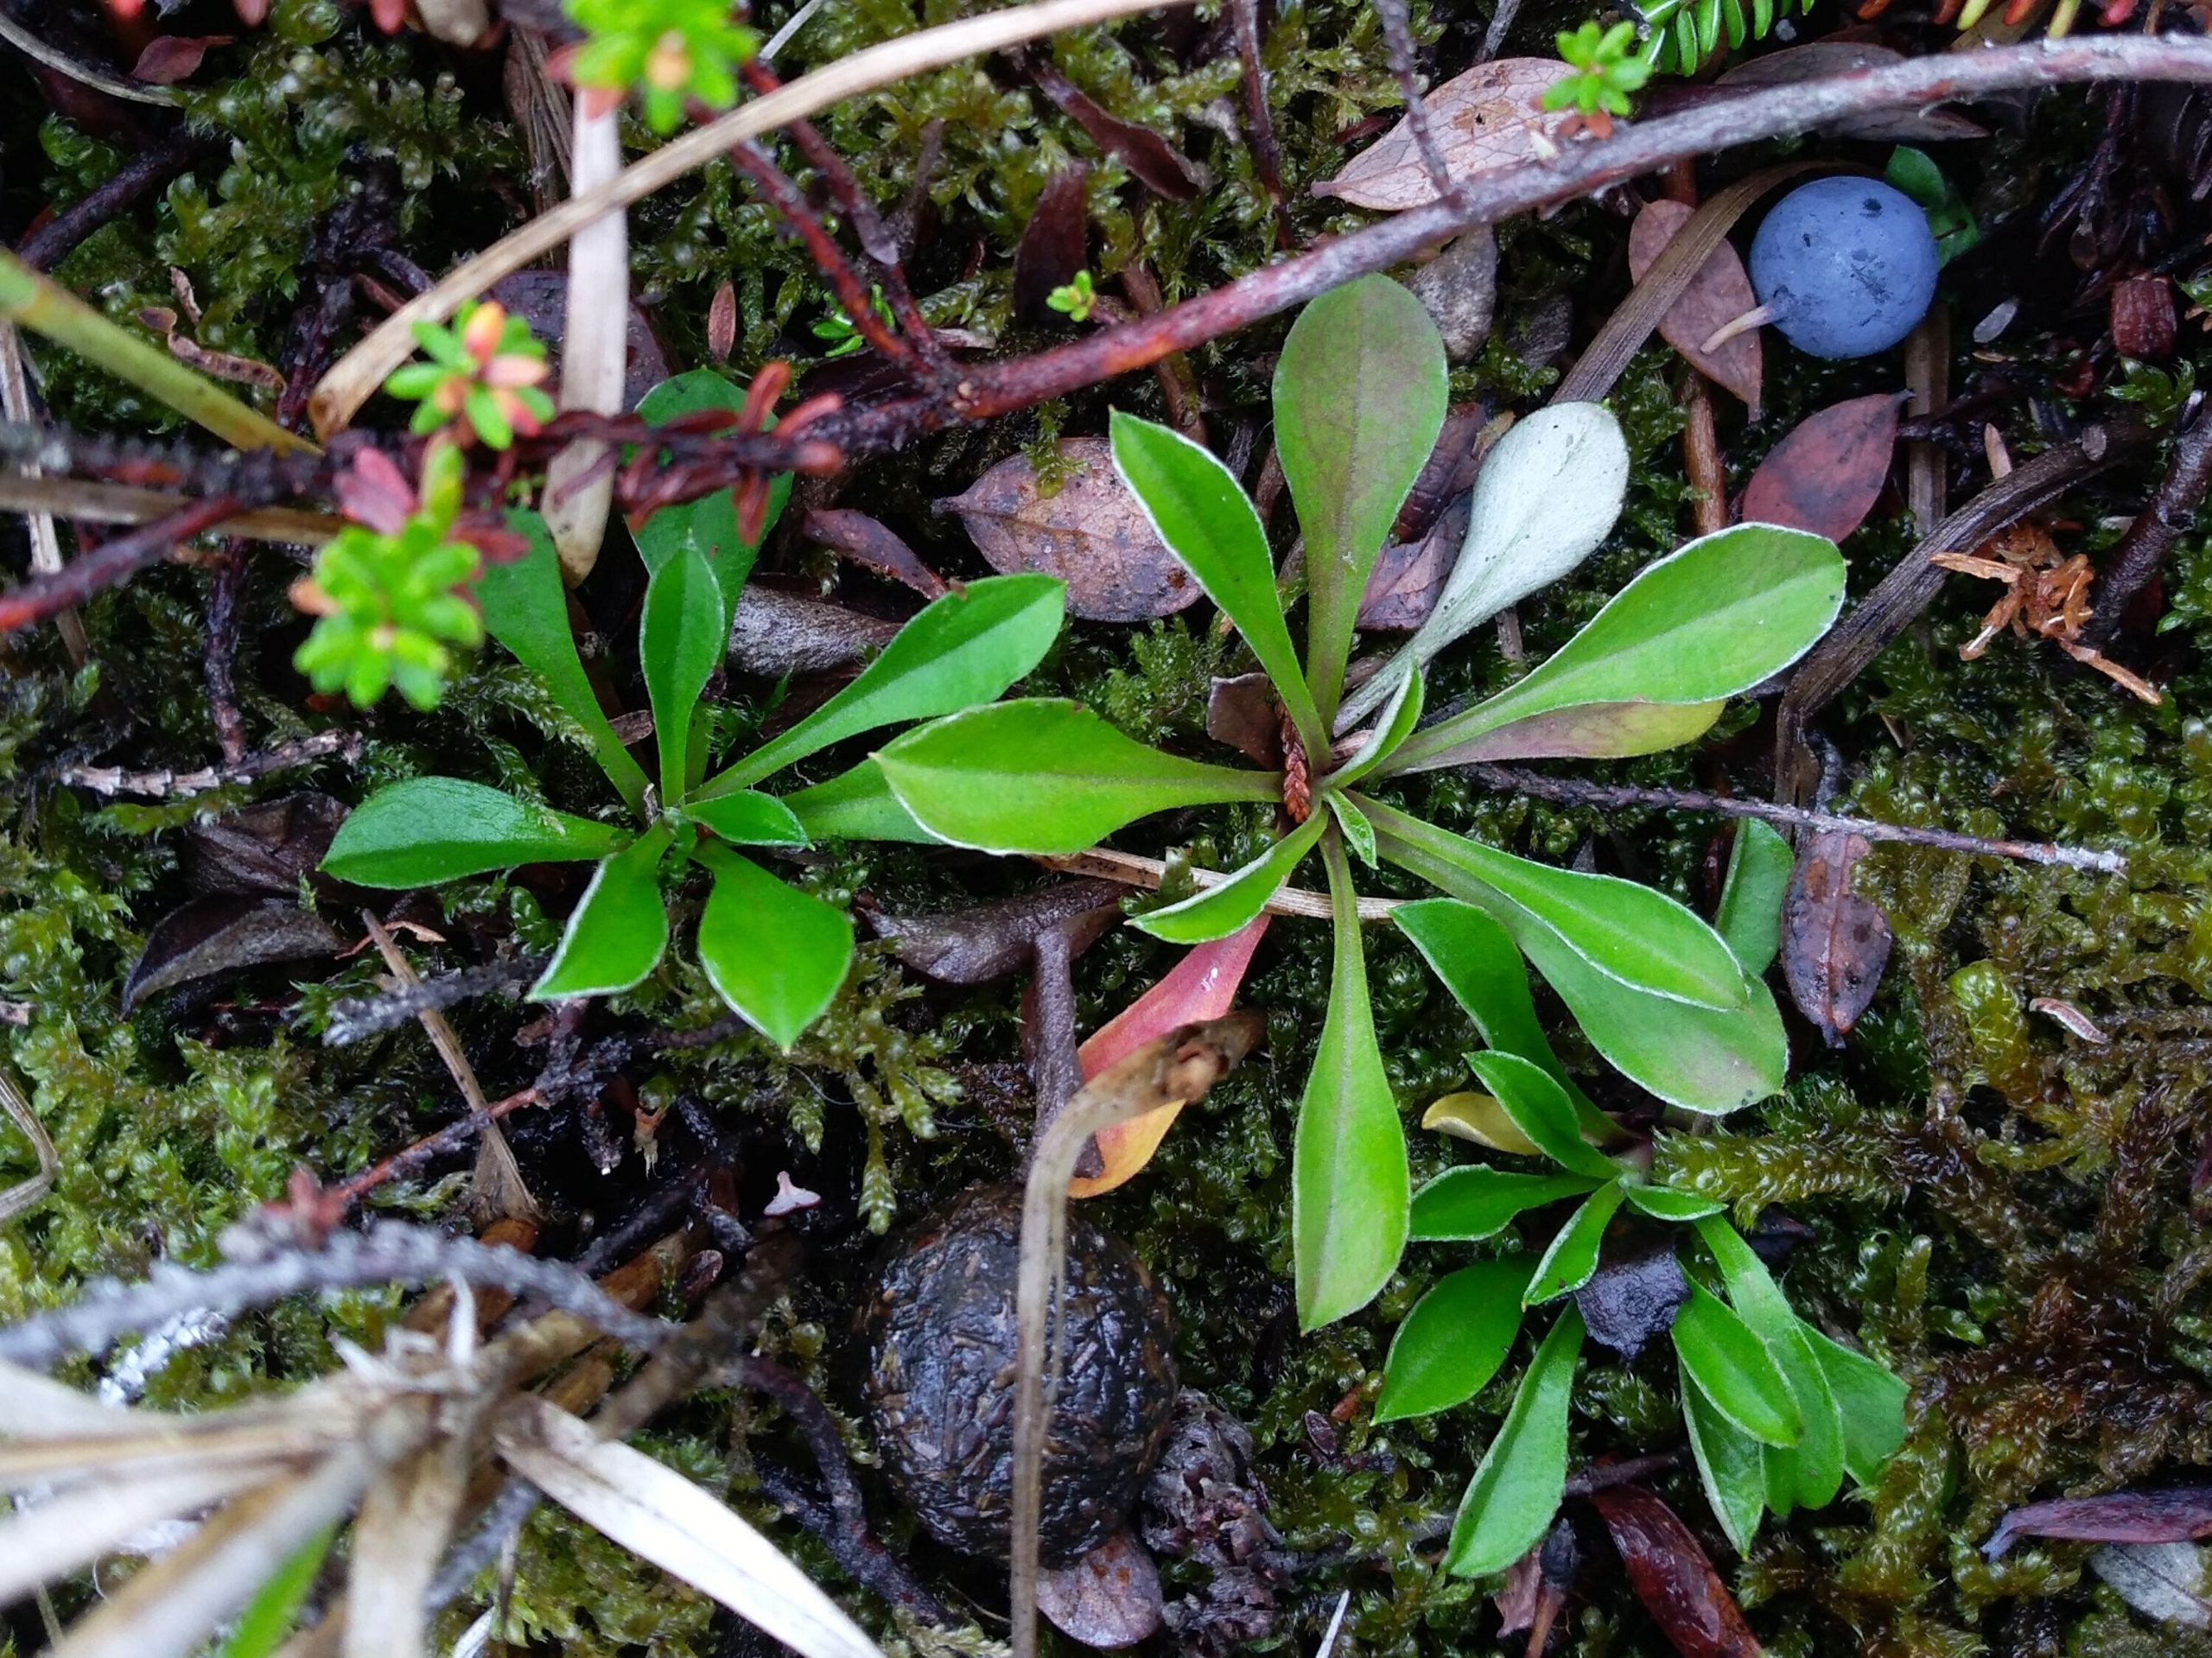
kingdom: Plantae
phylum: Tracheophyta
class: Magnoliopsida
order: Asterales
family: Asteraceae
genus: Antennaria
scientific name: Antennaria dioica
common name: Kattefod
